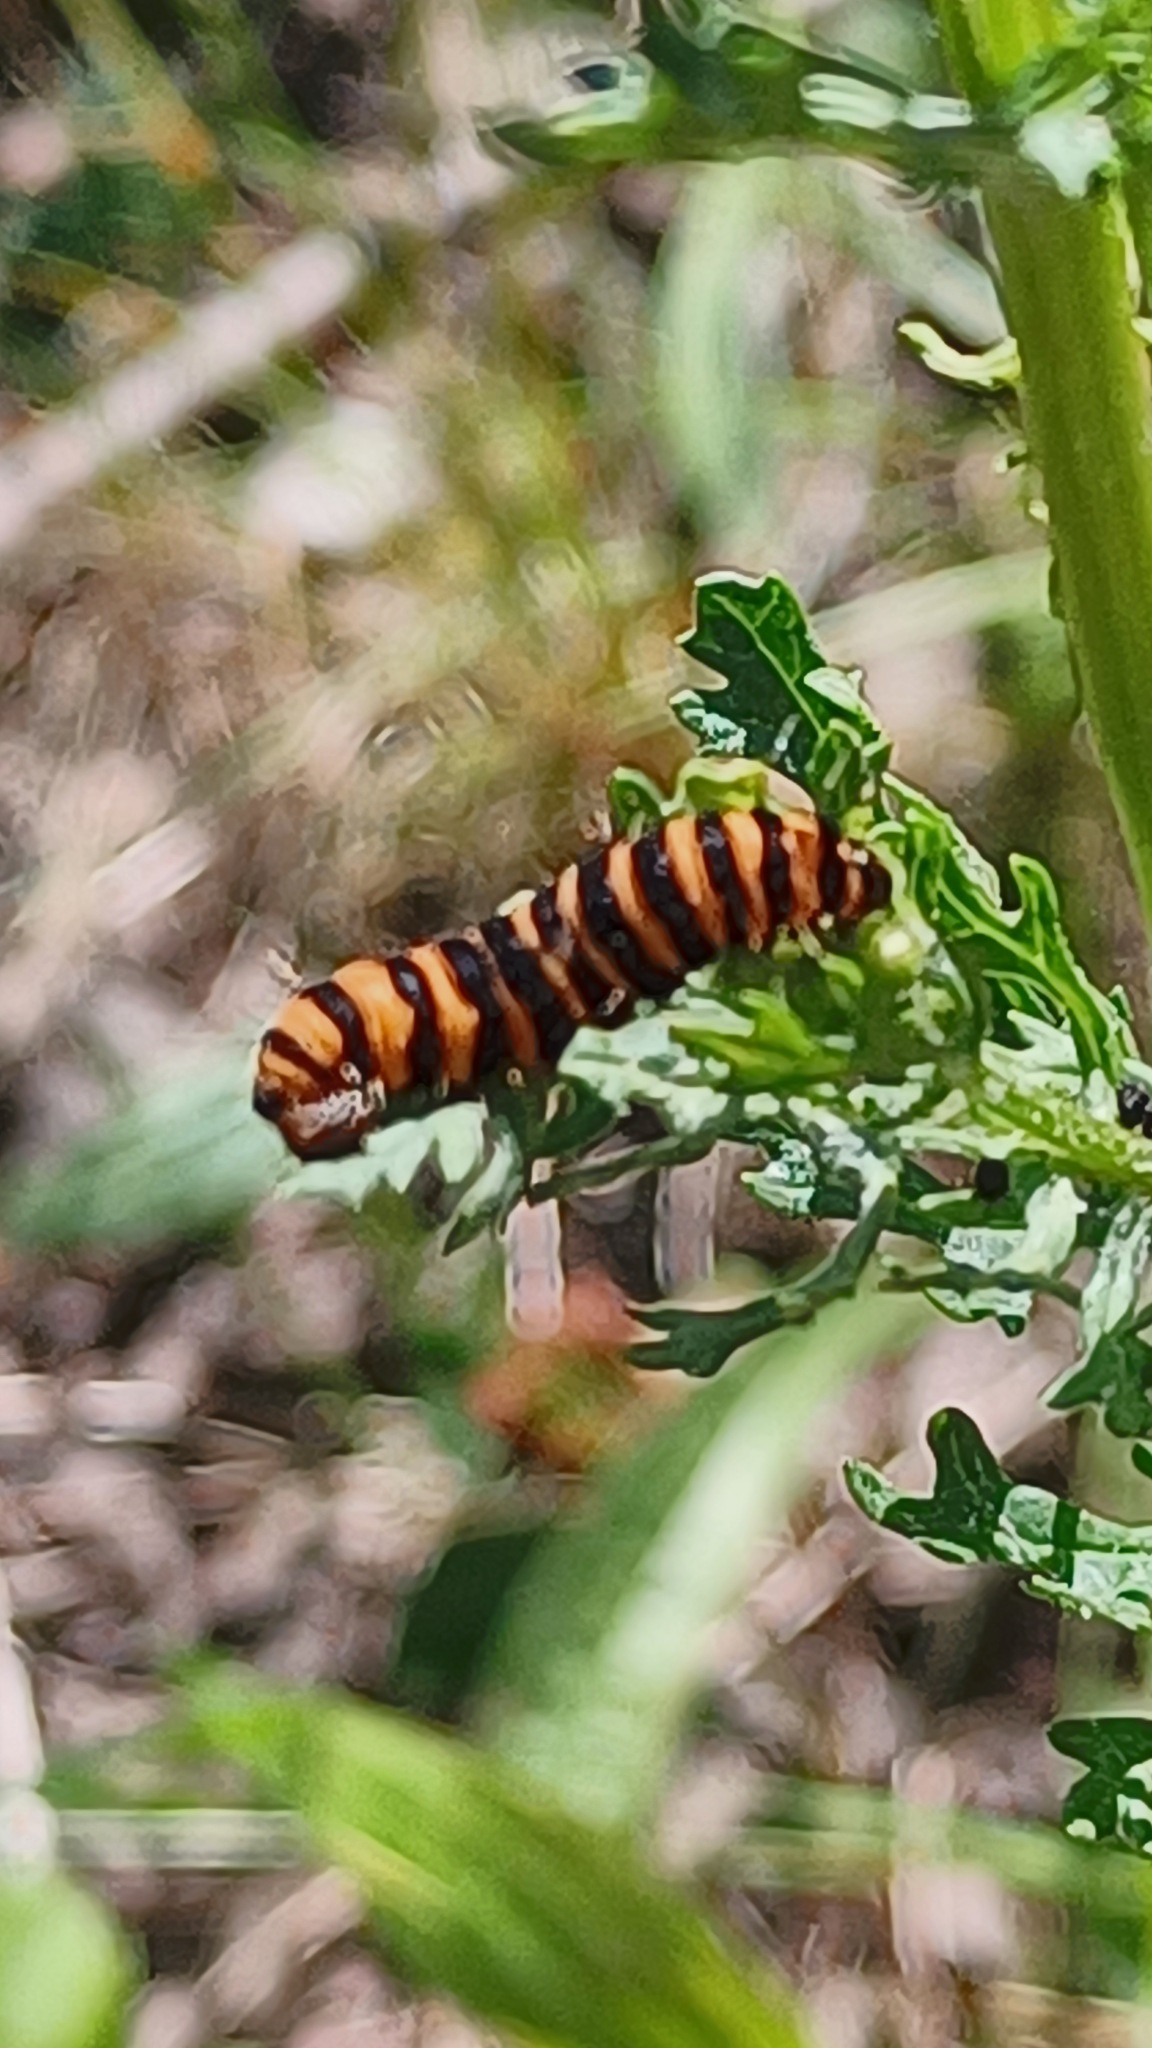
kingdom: Animalia
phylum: Arthropoda
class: Insecta
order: Lepidoptera
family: Erebidae
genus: Tyria
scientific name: Tyria jacobaeae
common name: Blodplet
